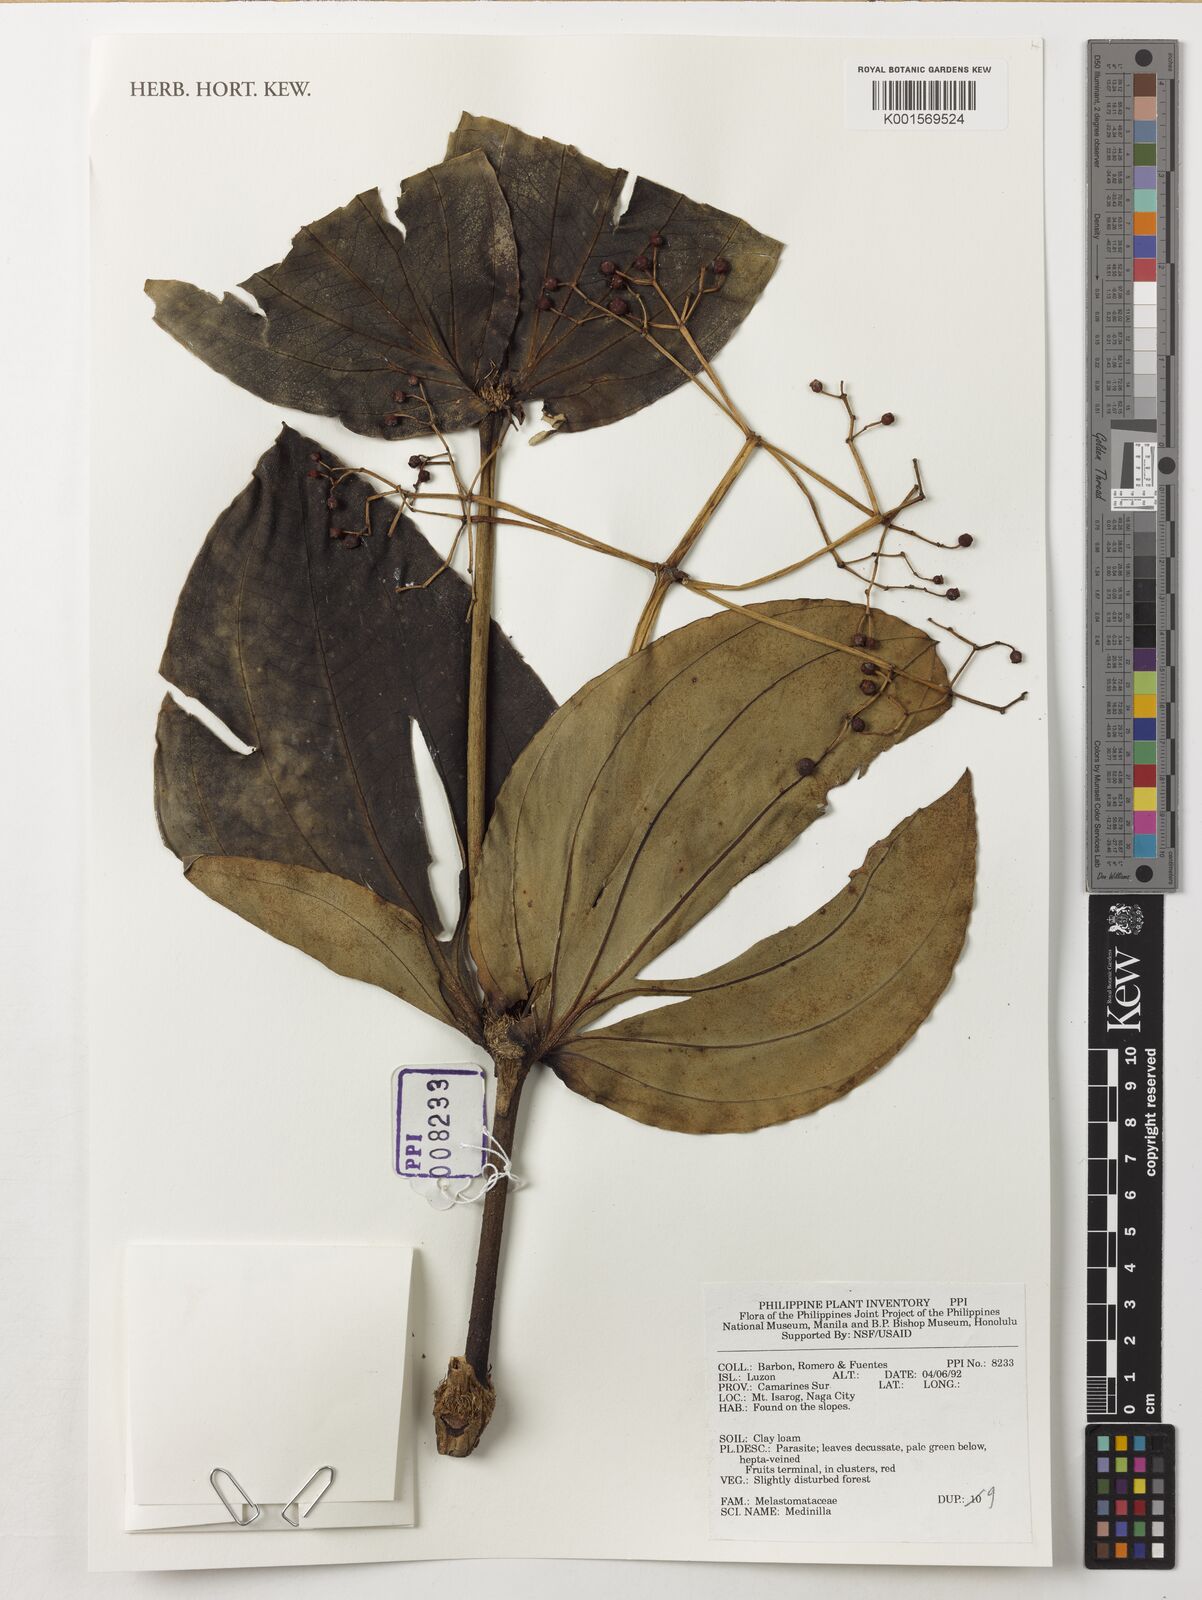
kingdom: Plantae
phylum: Tracheophyta
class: Magnoliopsida
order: Myrtales
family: Melastomataceae
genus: Medinilla
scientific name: Medinilla
